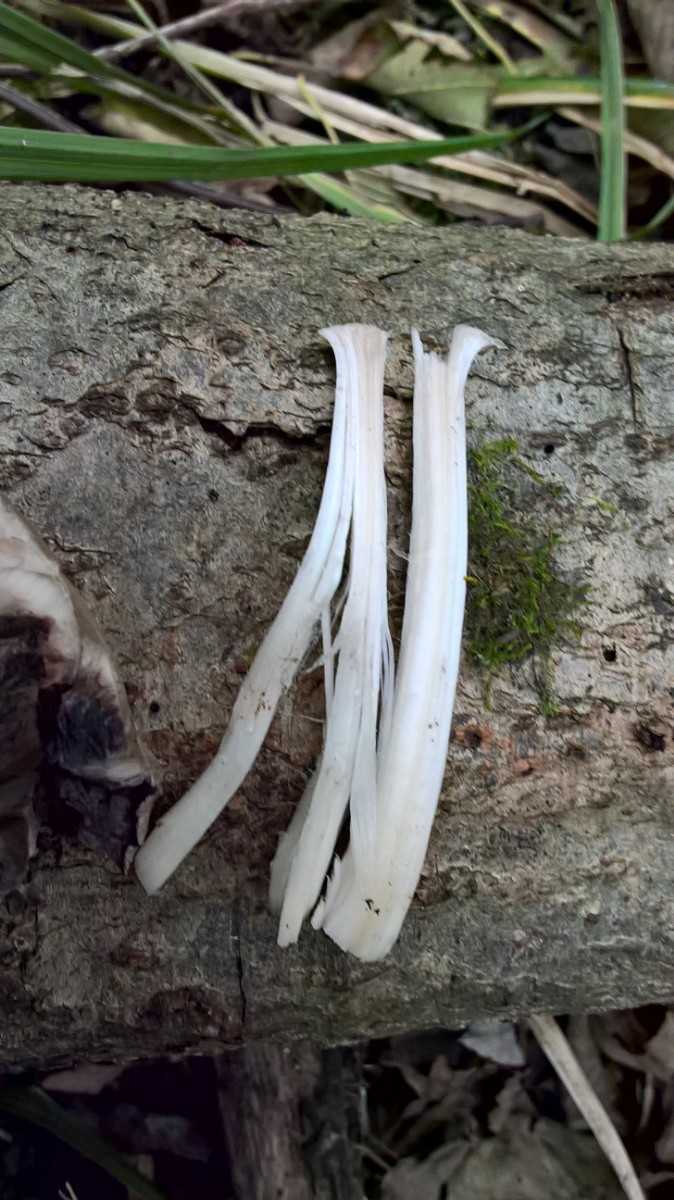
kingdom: Fungi
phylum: Basidiomycota
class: Agaricomycetes
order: Agaricales
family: Psathyrellaceae
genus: Coprinopsis
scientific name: Coprinopsis atramentaria
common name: almindelig blækhat
